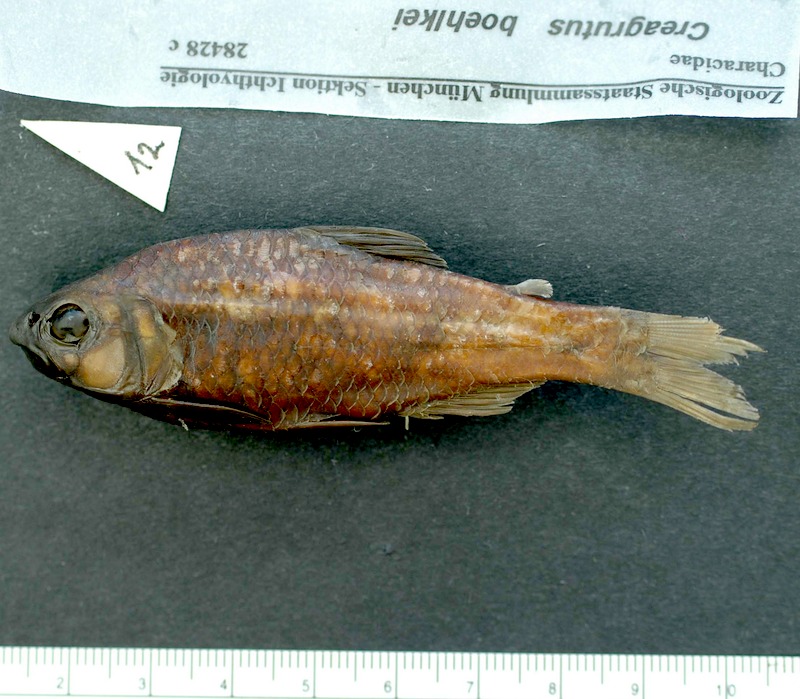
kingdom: Animalia
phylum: Chordata
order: Characiformes
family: Characidae
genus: Creagrutus
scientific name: Creagrutus amoenus
